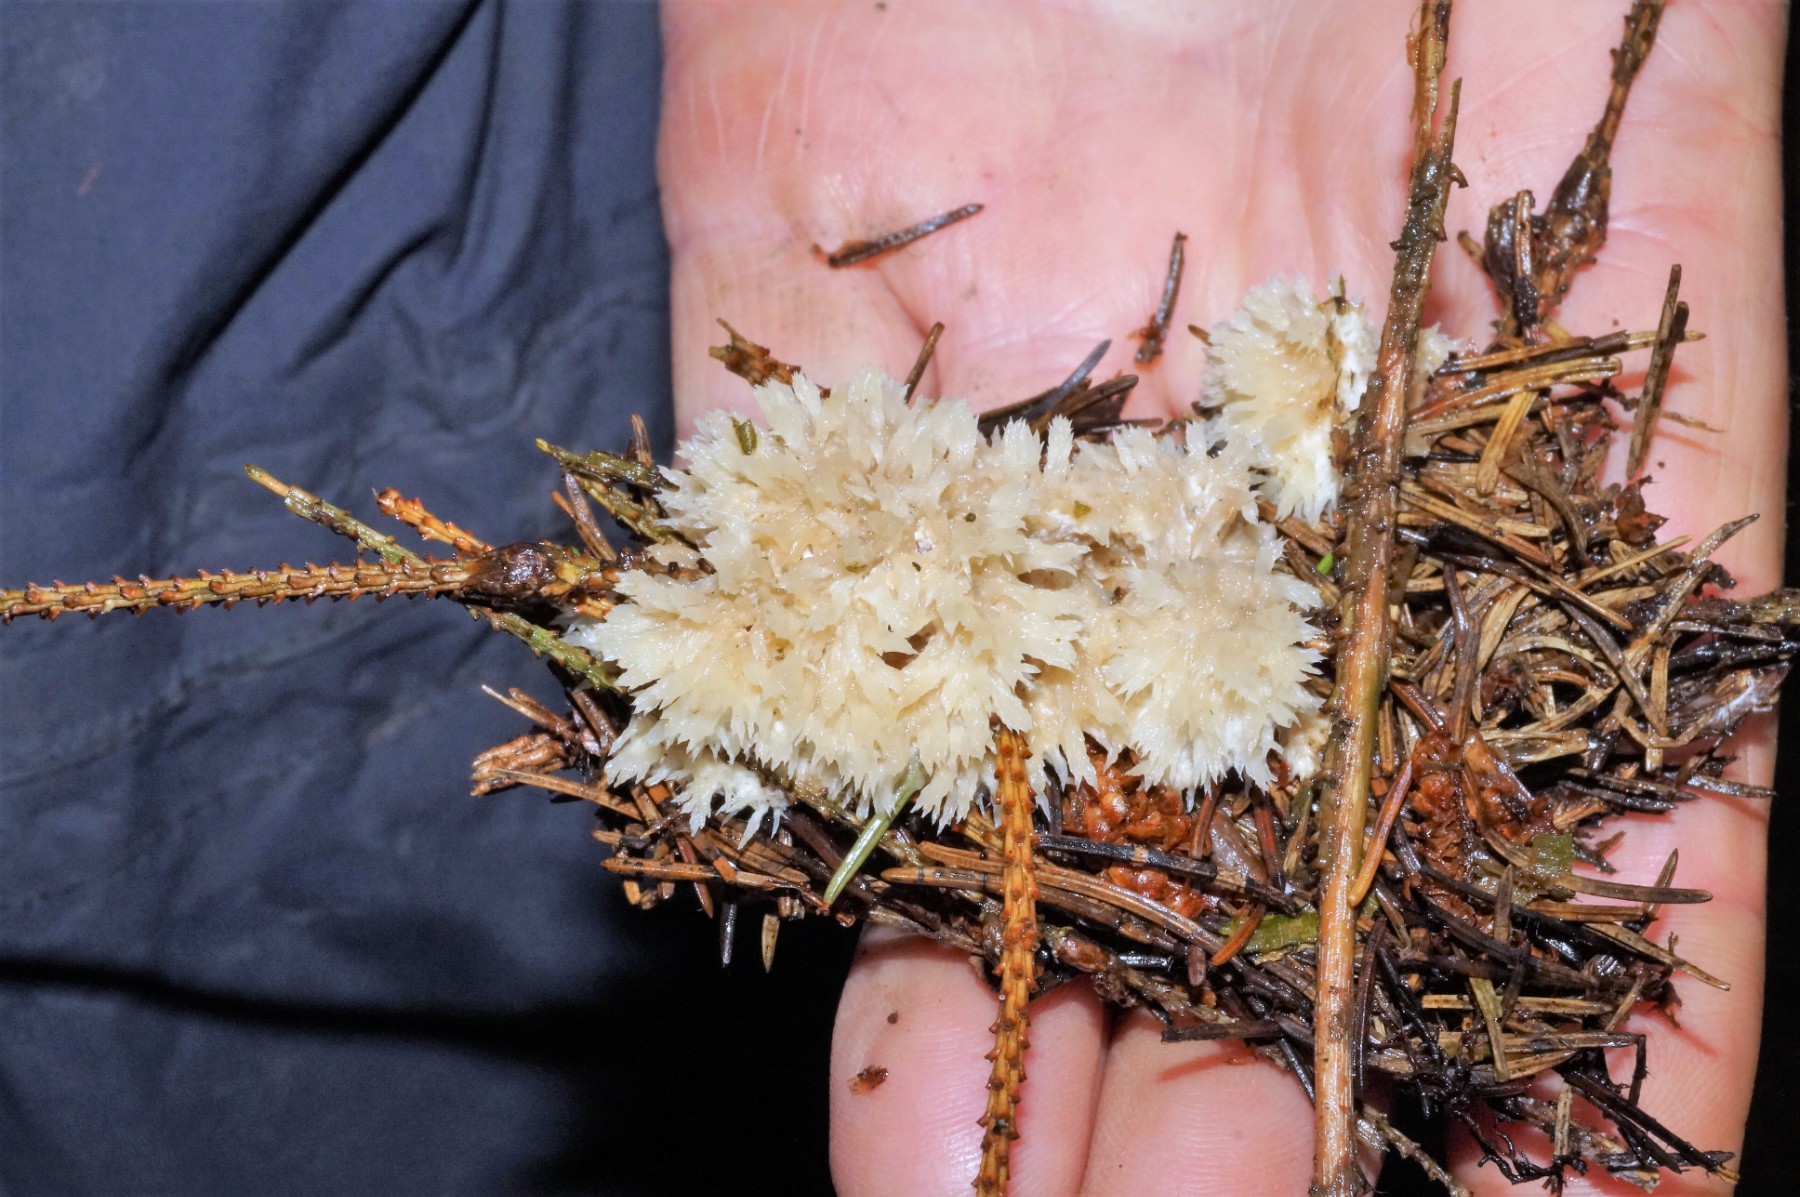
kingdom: Fungi
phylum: Basidiomycota
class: Agaricomycetes
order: Thelephorales
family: Thelephoraceae
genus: Thelephora
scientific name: Thelephora penicillata
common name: fladtrådt frynsesvamp
